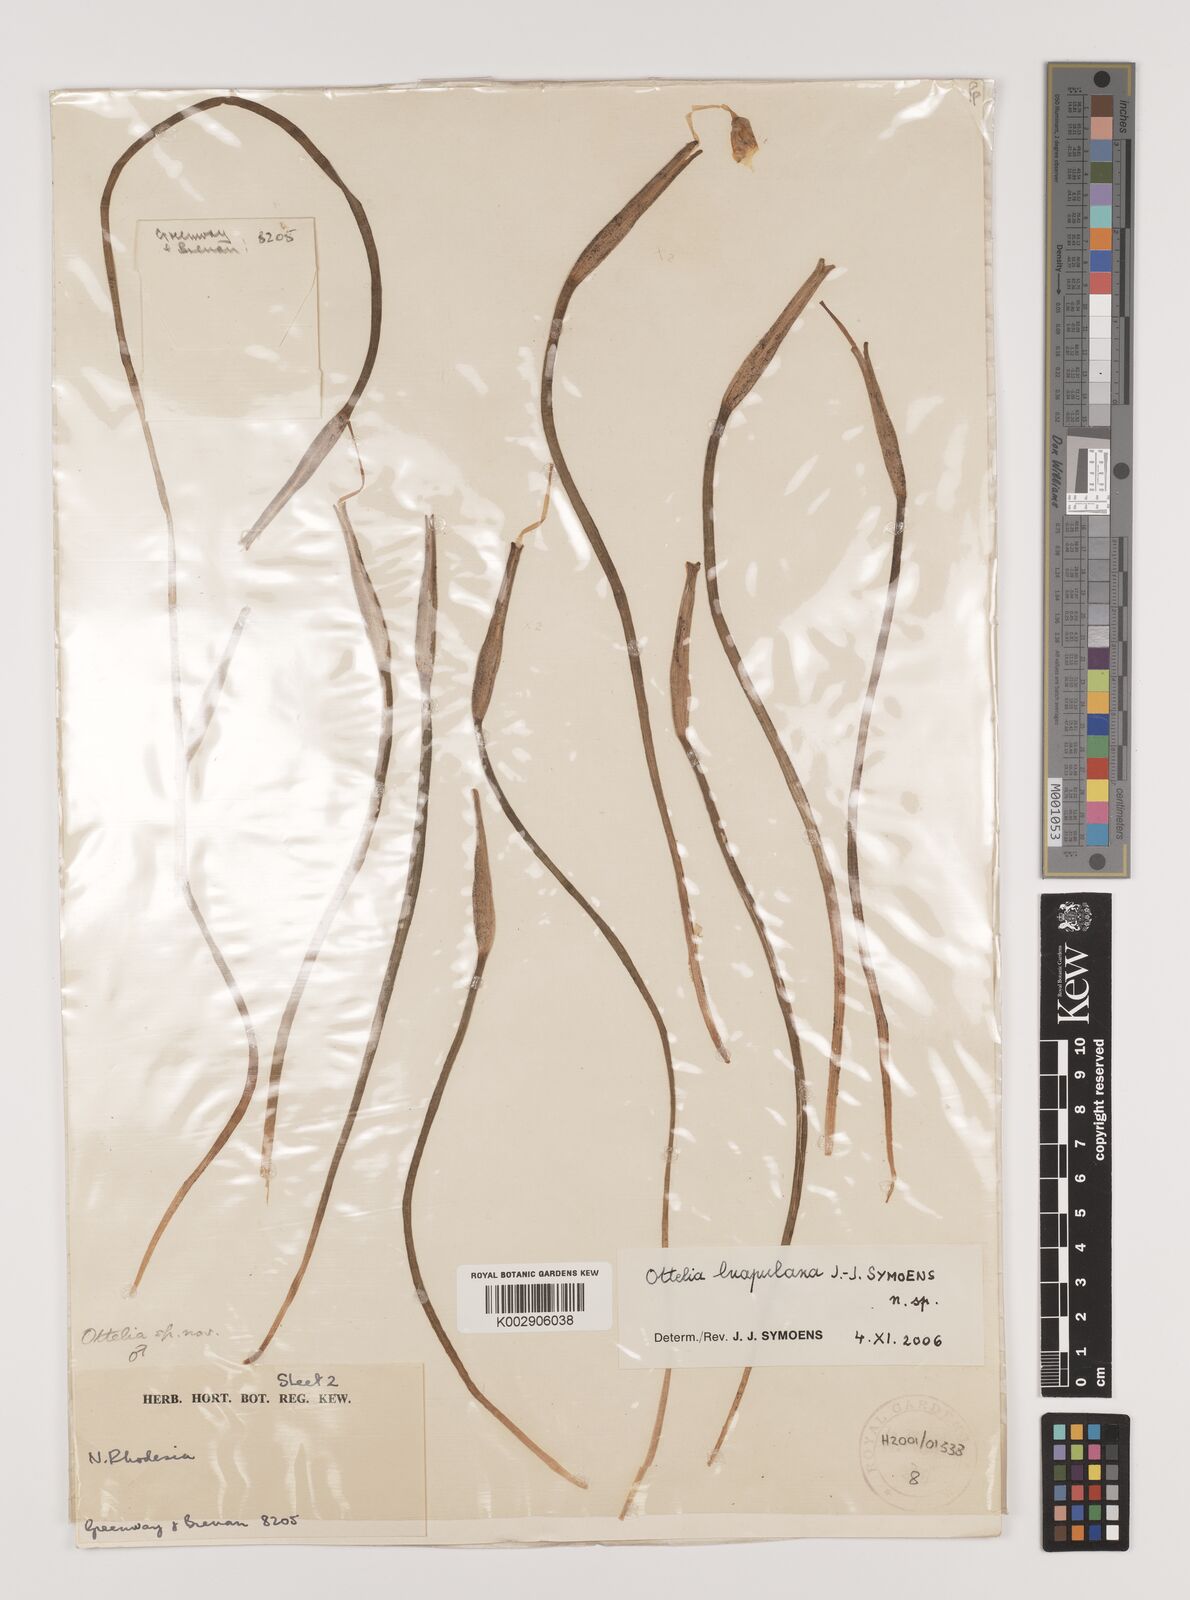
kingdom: Plantae
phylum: Tracheophyta
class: Liliopsida
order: Alismatales
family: Hydrocharitaceae
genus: Ottelia
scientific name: Ottelia obtusifolia
